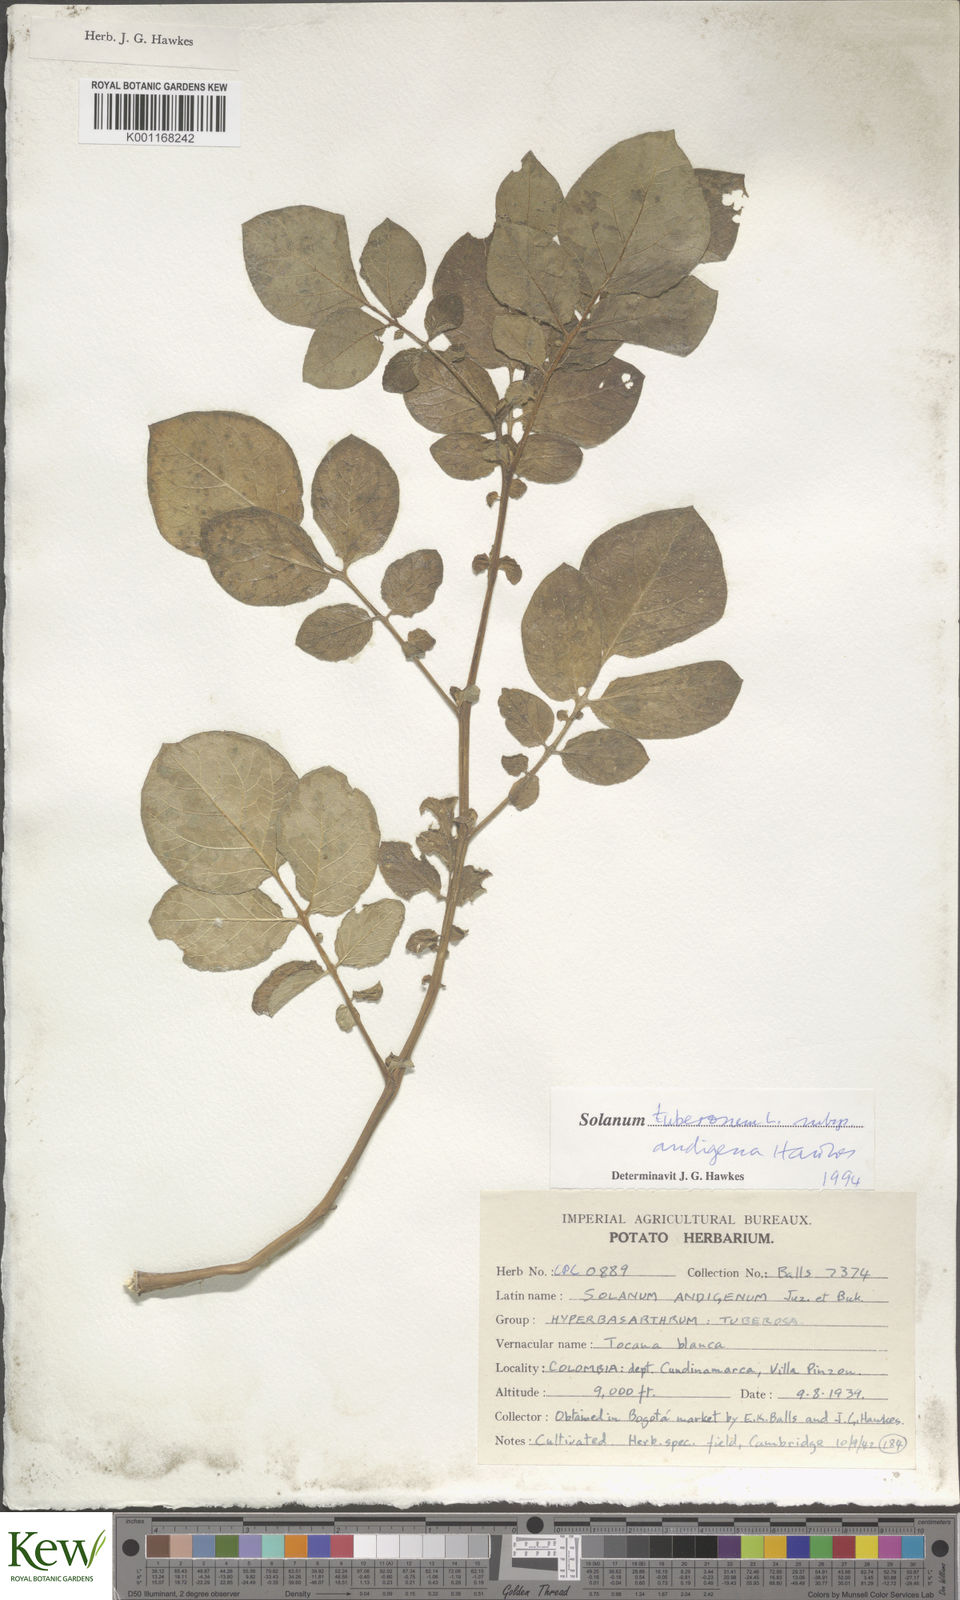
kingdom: Plantae
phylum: Tracheophyta
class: Magnoliopsida
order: Solanales
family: Solanaceae
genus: Solanum
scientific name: Solanum tuberosum
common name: Potato
